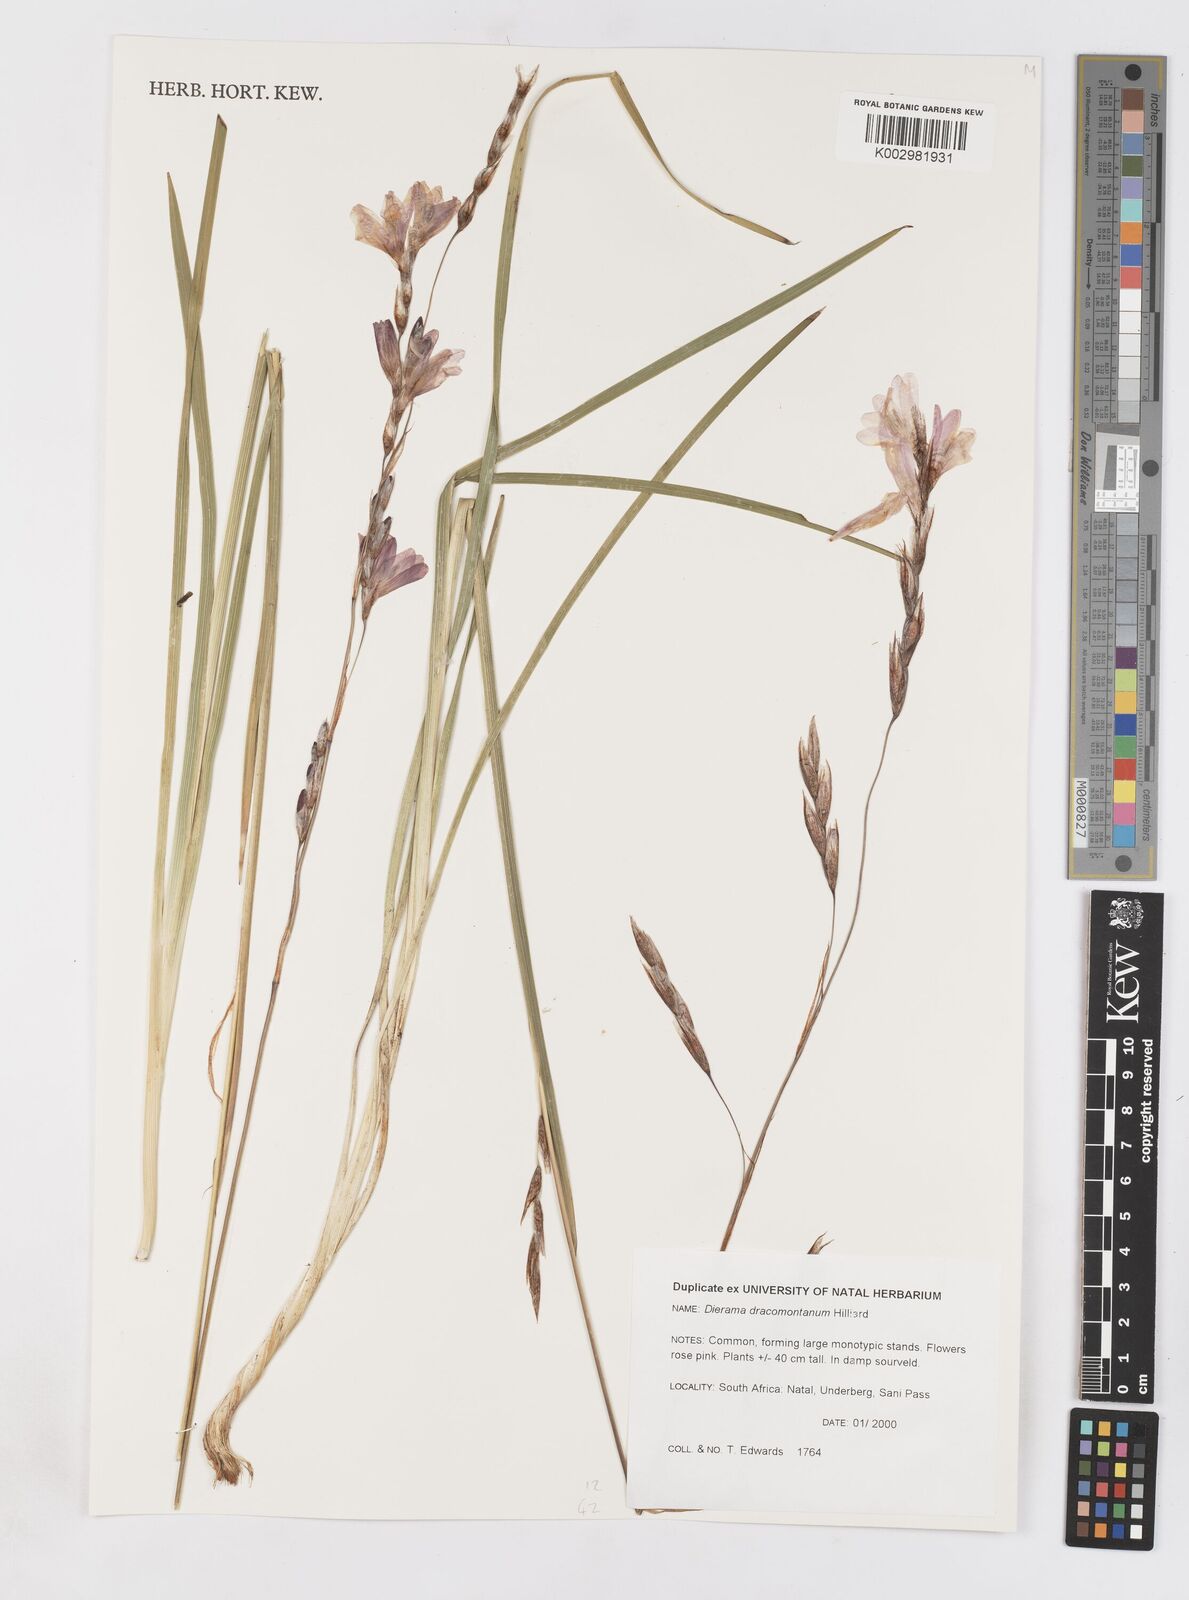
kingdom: Plantae
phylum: Tracheophyta
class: Liliopsida
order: Asparagales
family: Iridaceae
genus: Dierama
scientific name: Dierama dracomontanum
